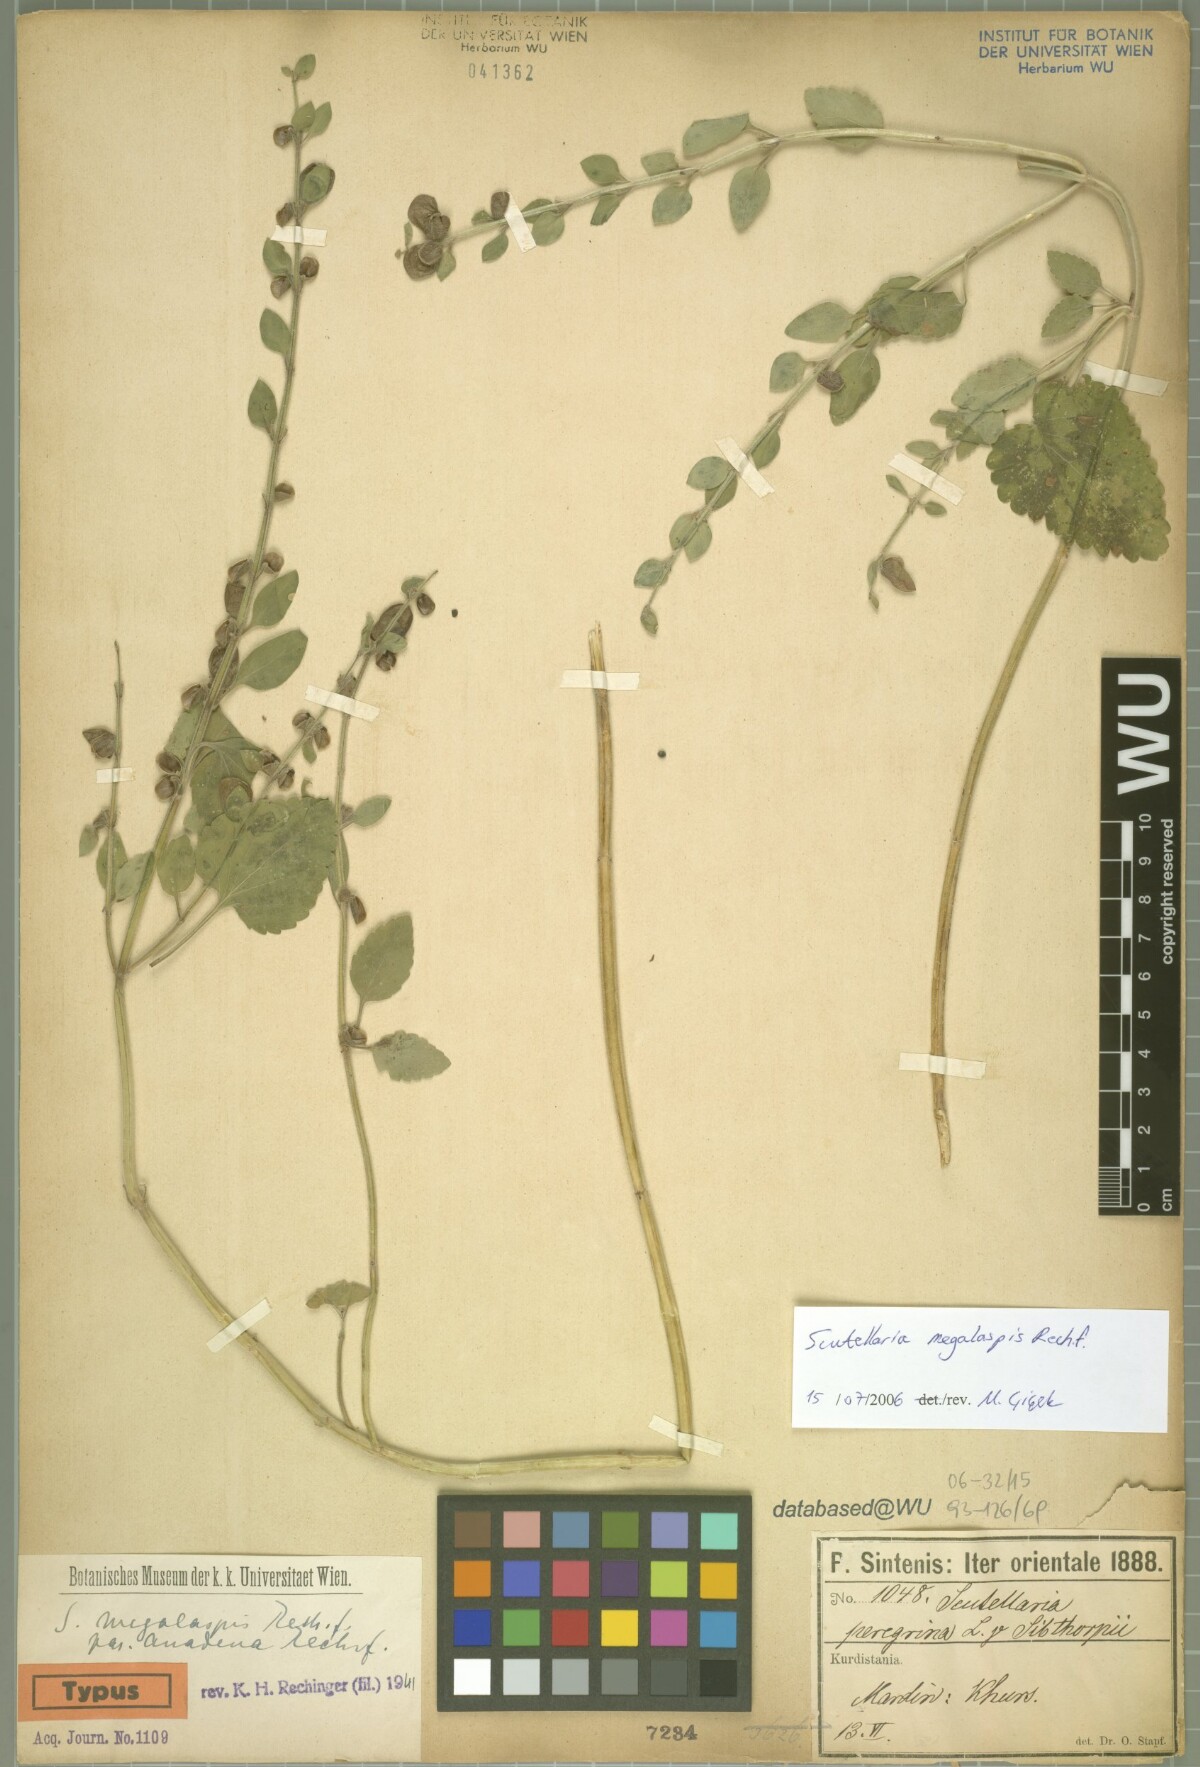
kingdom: Plantae
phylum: Tracheophyta
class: Magnoliopsida
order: Lamiales
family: Lamiaceae
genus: Scutellaria
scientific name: Scutellaria megalaspis
